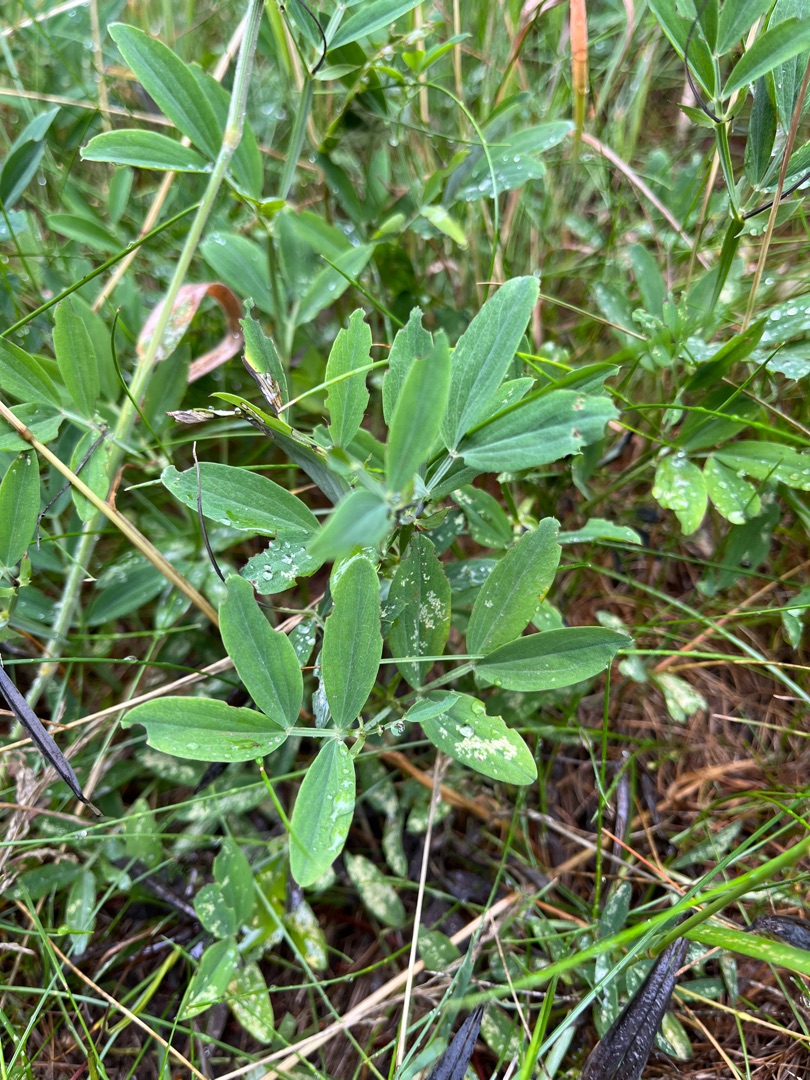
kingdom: Plantae
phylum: Tracheophyta
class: Magnoliopsida
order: Fabales
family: Fabaceae
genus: Lathyrus
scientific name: Lathyrus linifolius
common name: Krat-fladbælg
